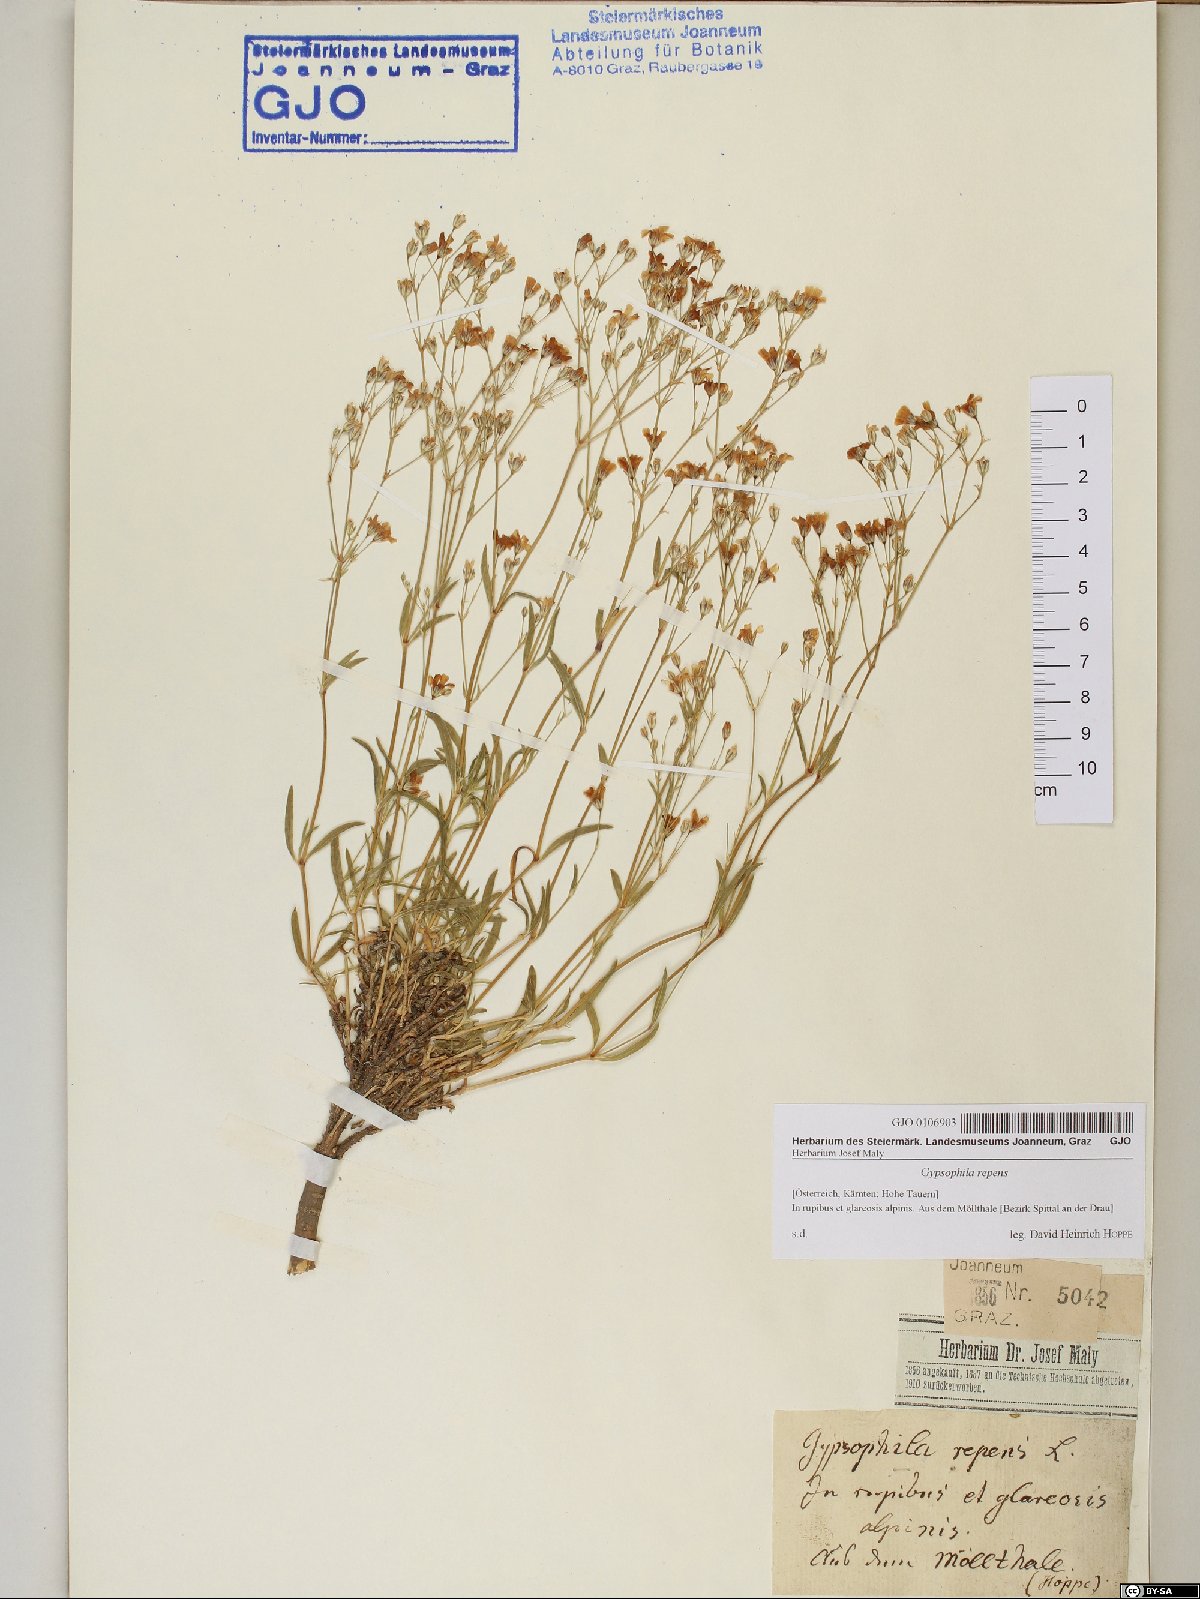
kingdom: Plantae
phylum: Tracheophyta
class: Magnoliopsida
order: Caryophyllales
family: Caryophyllaceae
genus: Gypsophila
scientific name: Gypsophila repens
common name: Creeping baby's-breath
